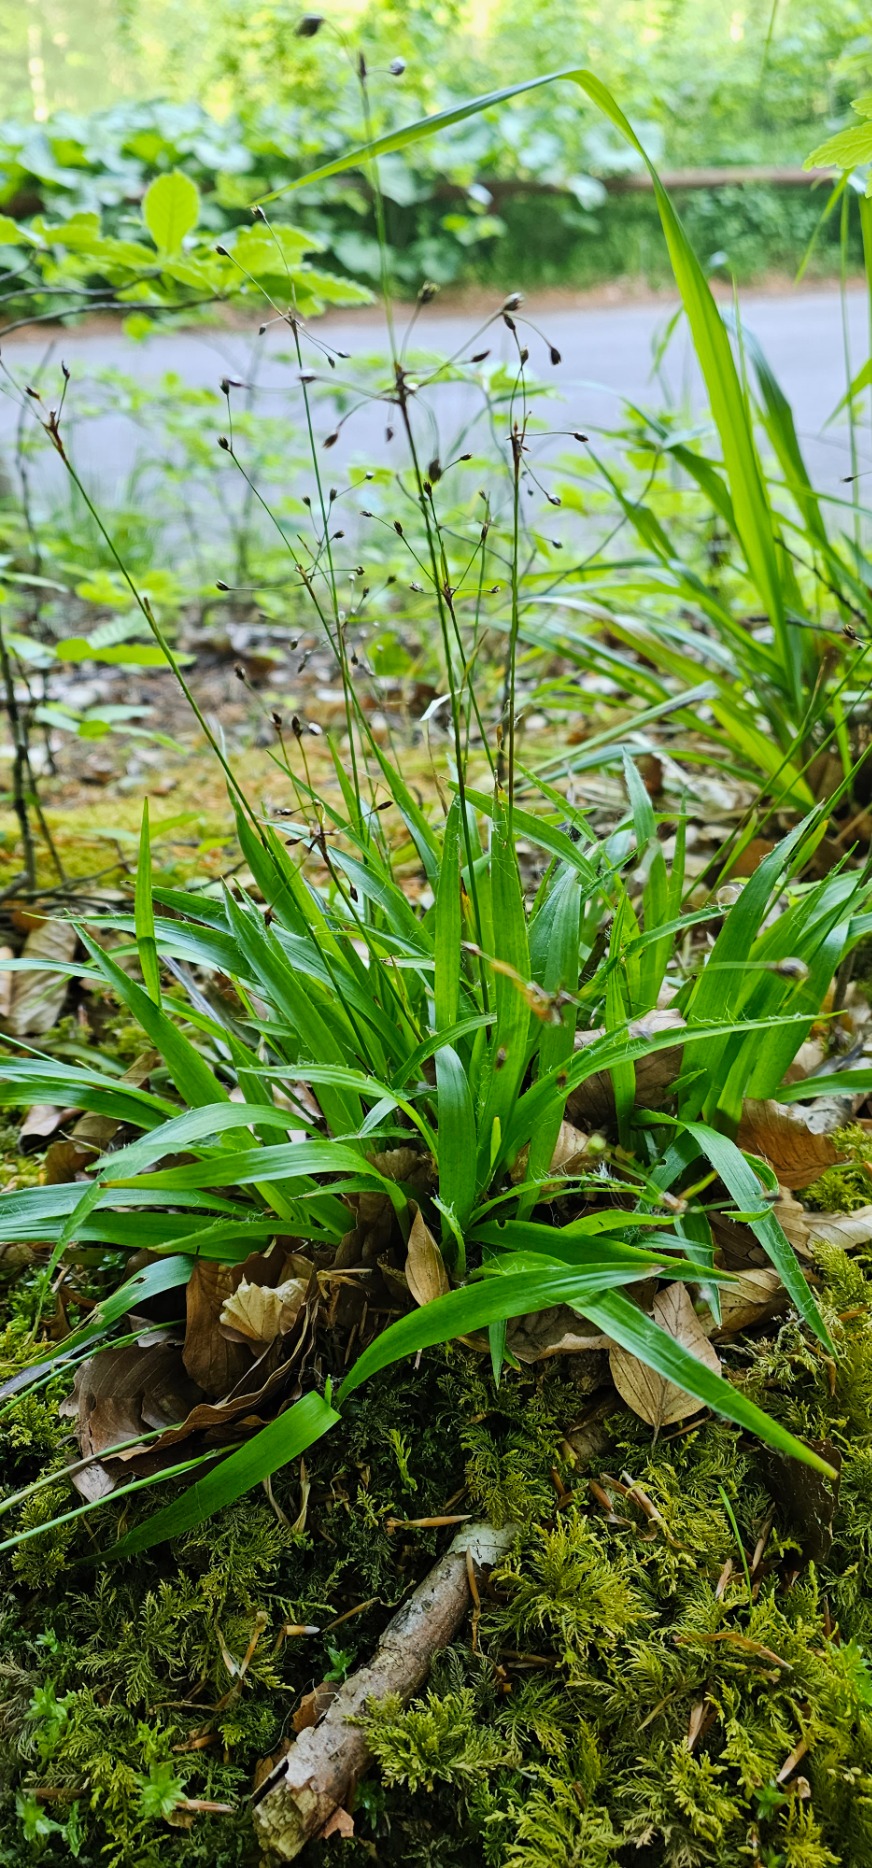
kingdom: Plantae
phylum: Tracheophyta
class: Liliopsida
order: Poales
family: Juncaceae
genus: Luzula
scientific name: Luzula pilosa
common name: Håret frytle
